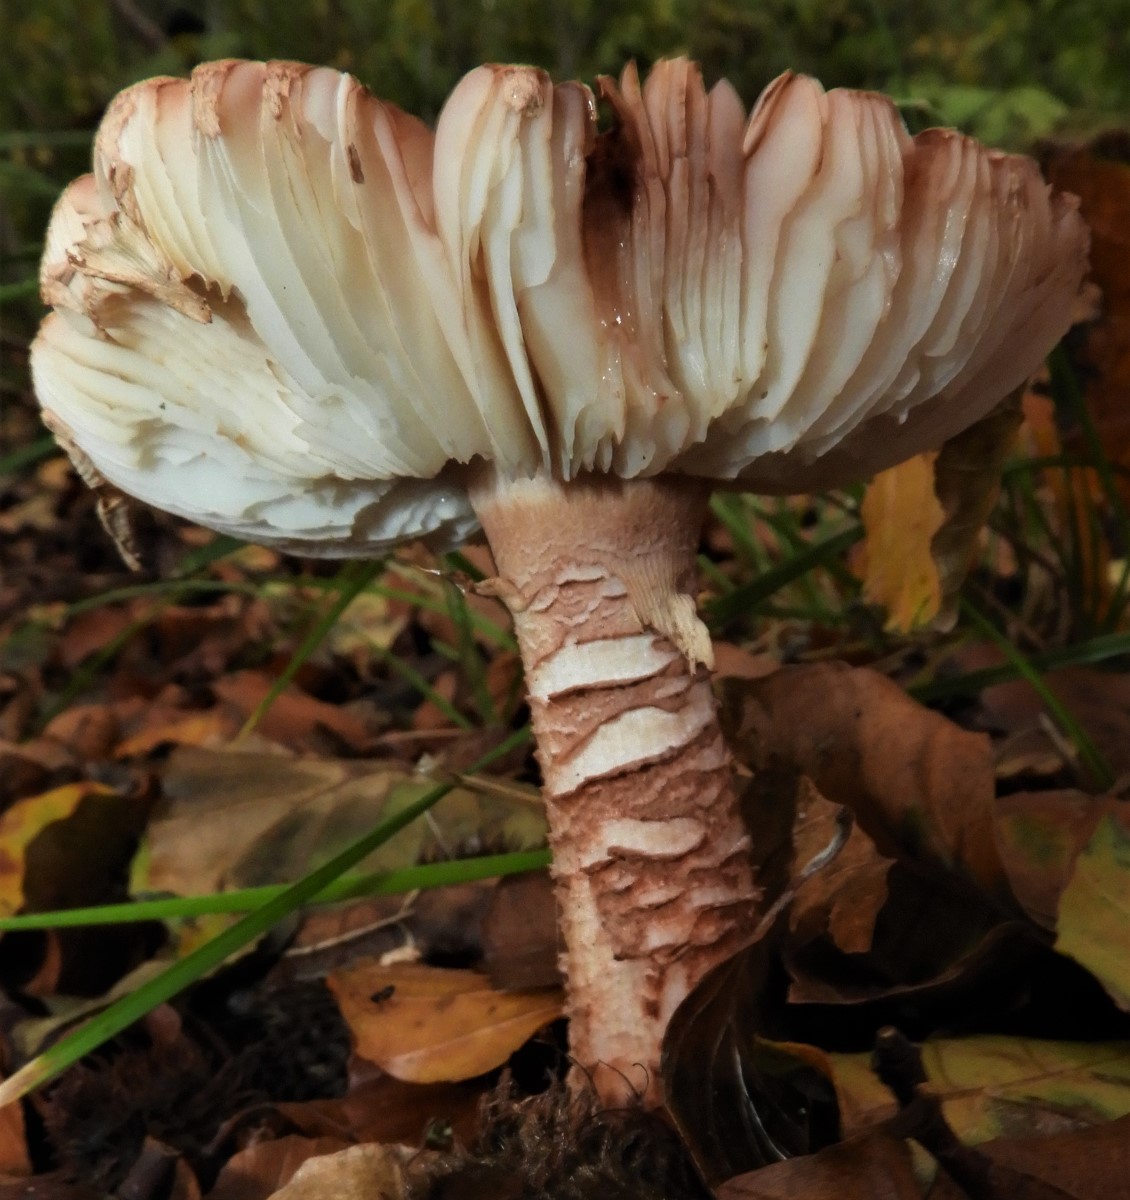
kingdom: Fungi
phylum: Basidiomycota
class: Agaricomycetes
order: Agaricales
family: Amanitaceae
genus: Amanita
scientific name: Amanita rubescens
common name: rødmende fluesvamp
